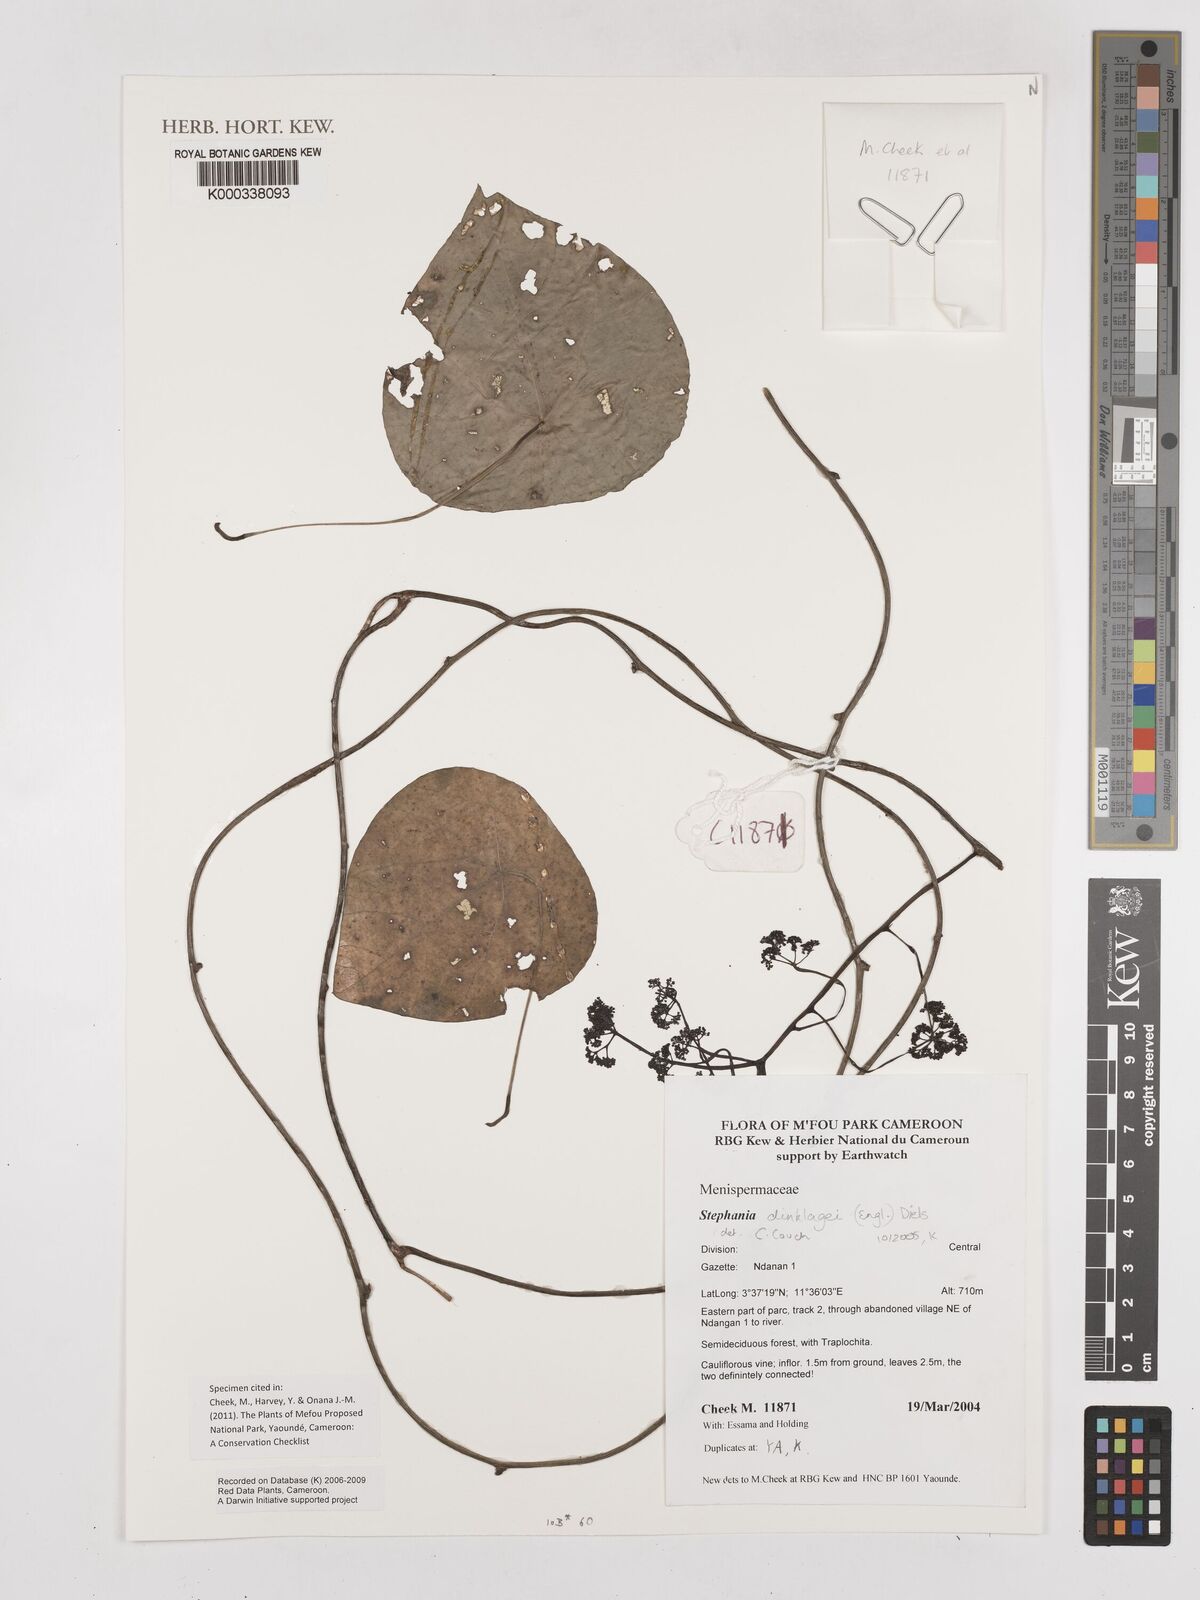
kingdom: Plantae
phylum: Tracheophyta
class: Magnoliopsida
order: Ranunculales
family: Menispermaceae
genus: Stephania
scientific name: Stephania dinklagei
